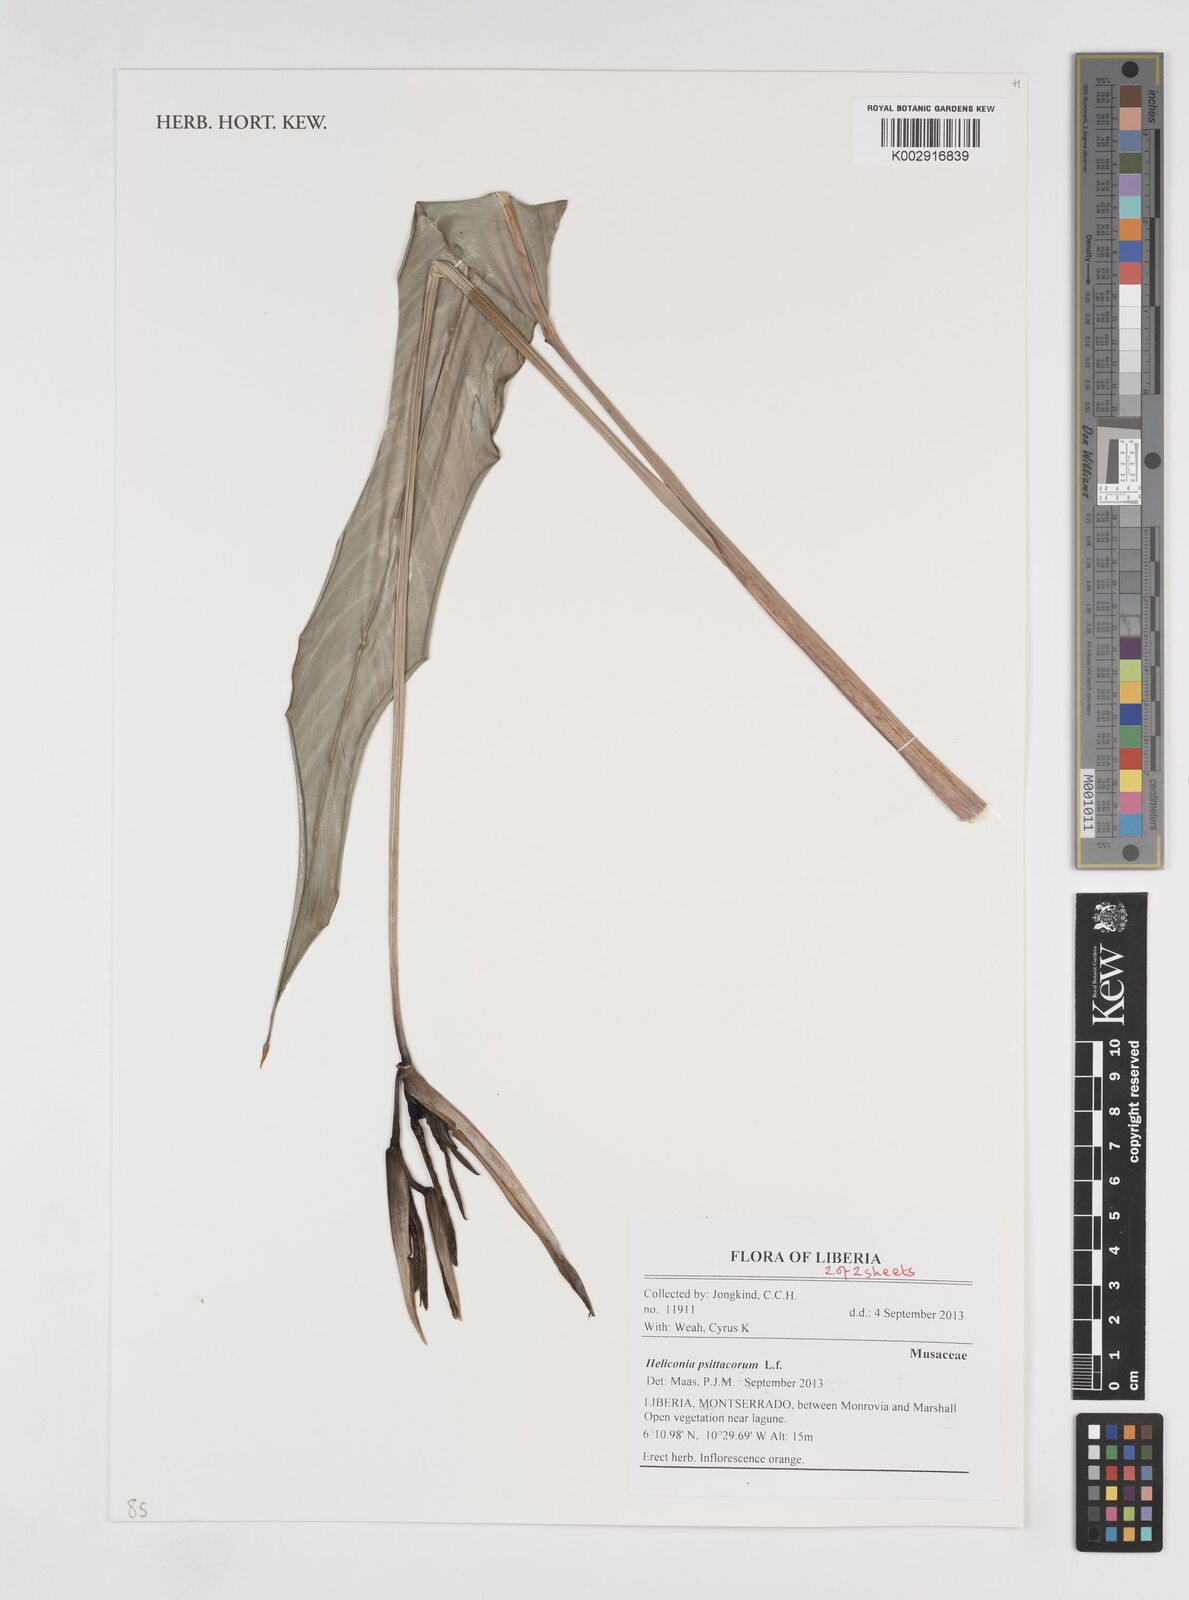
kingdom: Plantae
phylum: Tracheophyta
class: Liliopsida
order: Zingiberales
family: Heliconiaceae
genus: Heliconia
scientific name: Heliconia psittacorum
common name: Parrot's-flower
